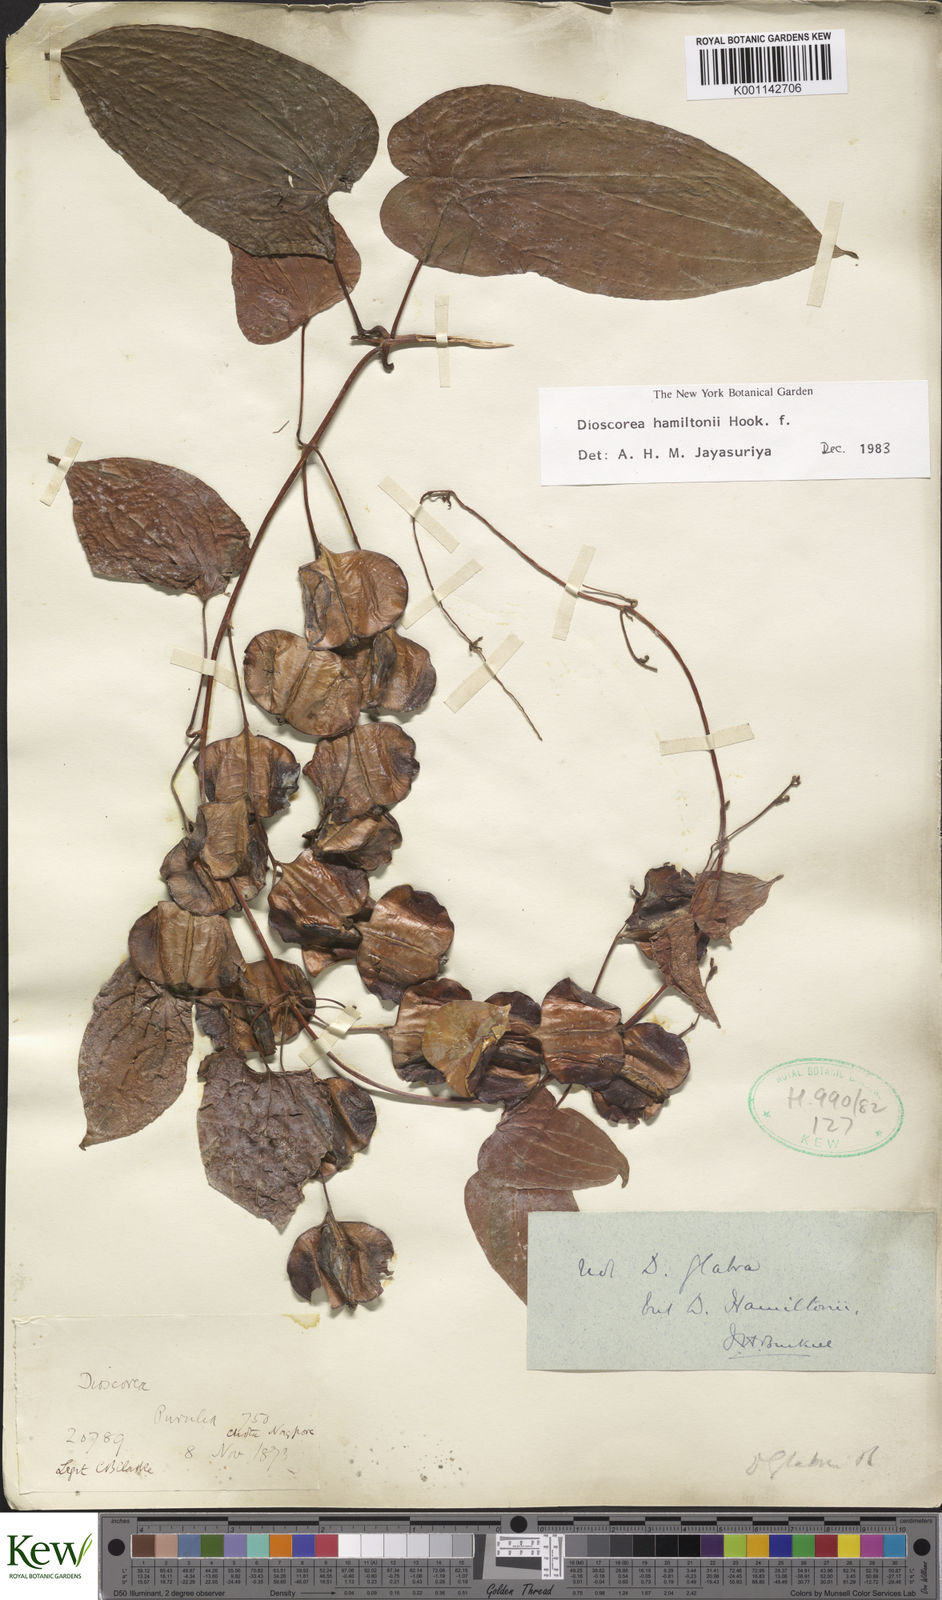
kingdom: Plantae
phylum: Tracheophyta
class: Liliopsida
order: Dioscoreales
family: Dioscoreaceae
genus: Dioscorea
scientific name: Dioscorea hamiltonii
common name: Mountain yam
